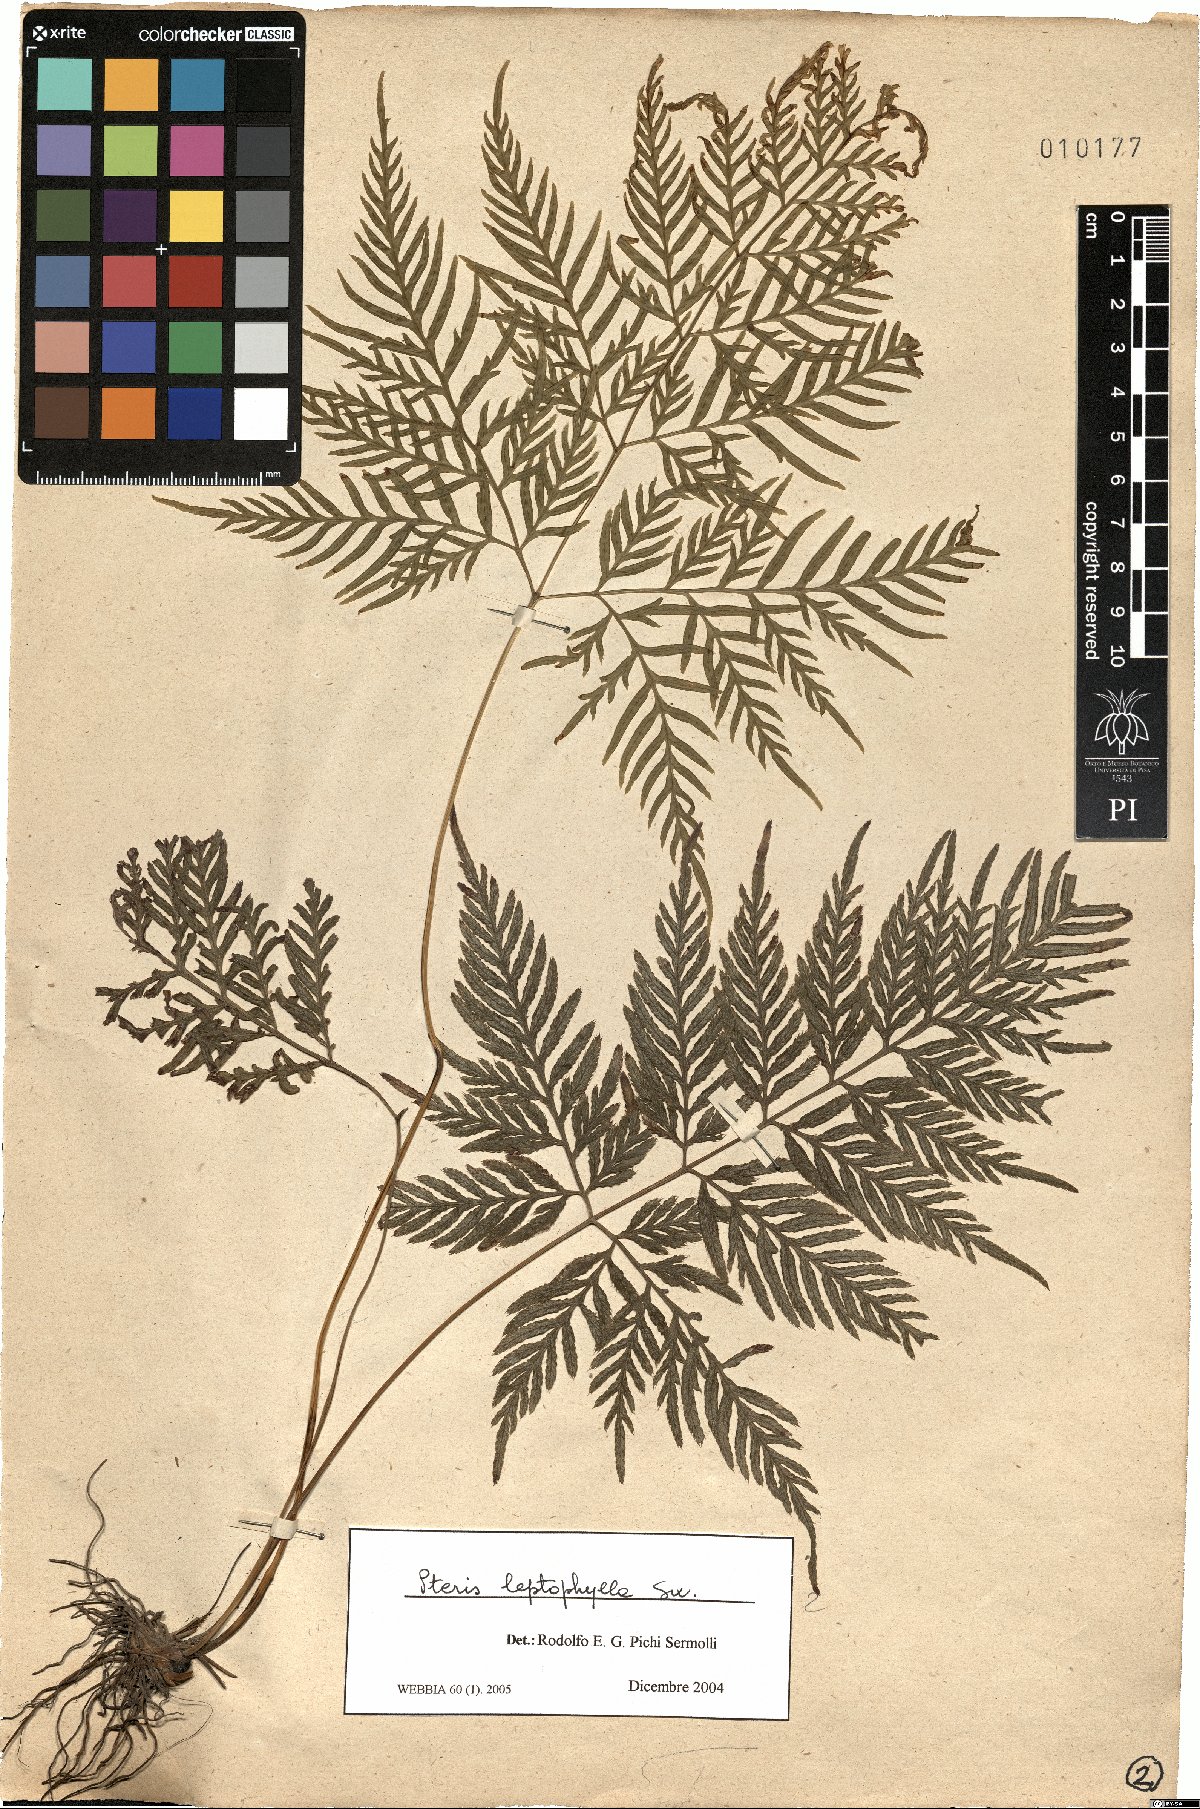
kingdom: Plantae
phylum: Tracheophyta
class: Polypodiopsida
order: Polypodiales
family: Pteridaceae
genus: Pteris
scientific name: Pteris leptophylla
